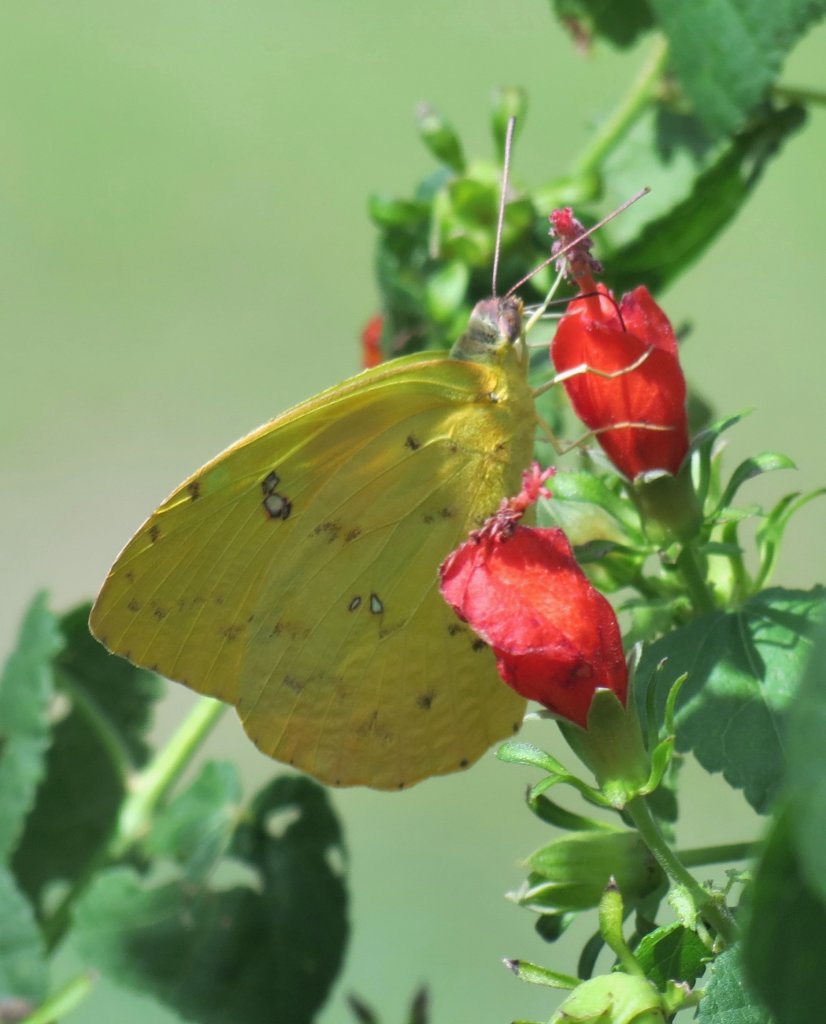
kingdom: Animalia
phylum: Arthropoda
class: Insecta
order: Lepidoptera
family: Pieridae
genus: Phoebis
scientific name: Phoebis philea
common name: Orange-barred Sulphur
